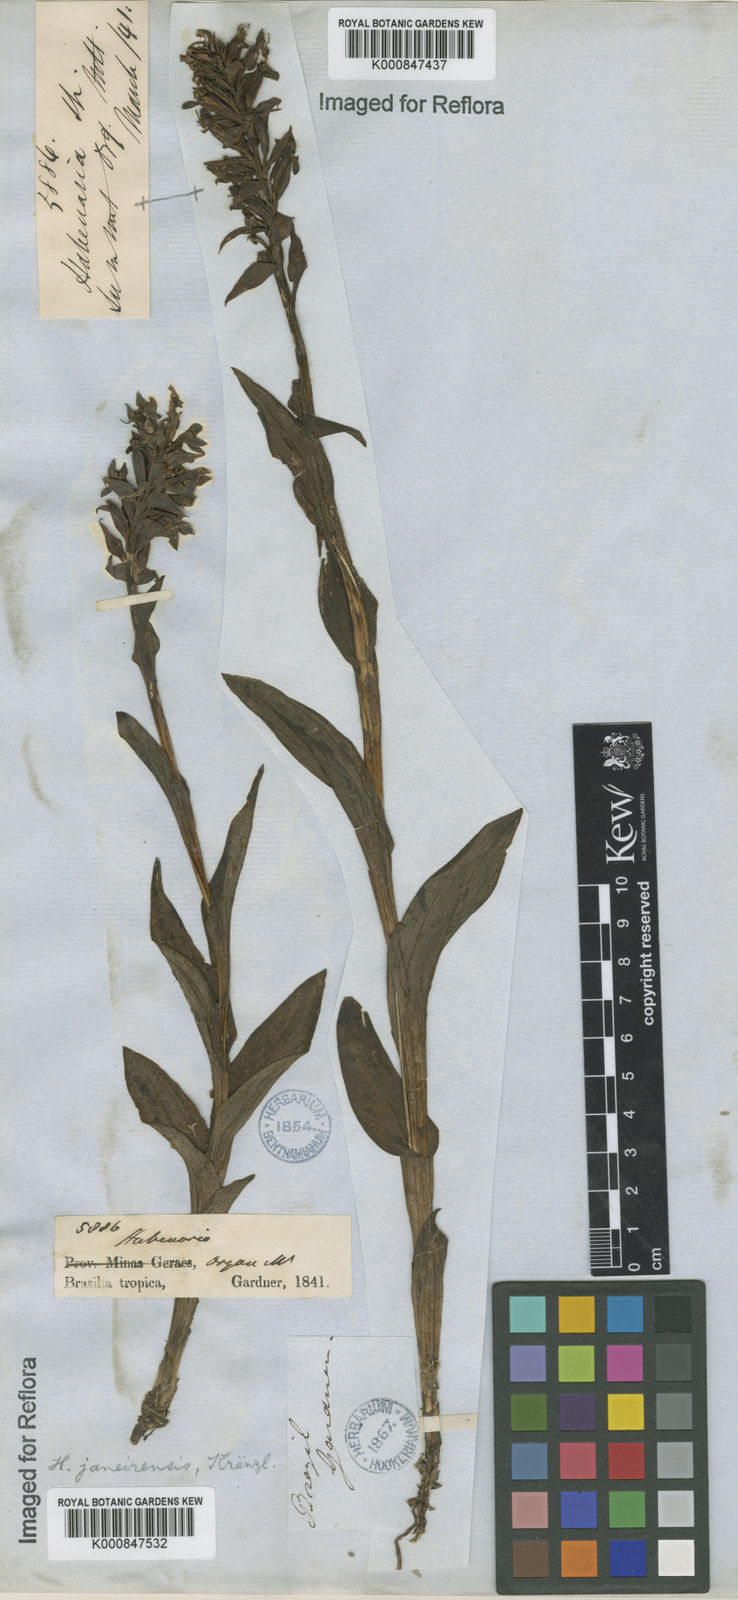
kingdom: Plantae
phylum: Tracheophyta
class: Liliopsida
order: Asparagales
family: Orchidaceae
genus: Habenaria
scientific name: Habenaria paranaensis
